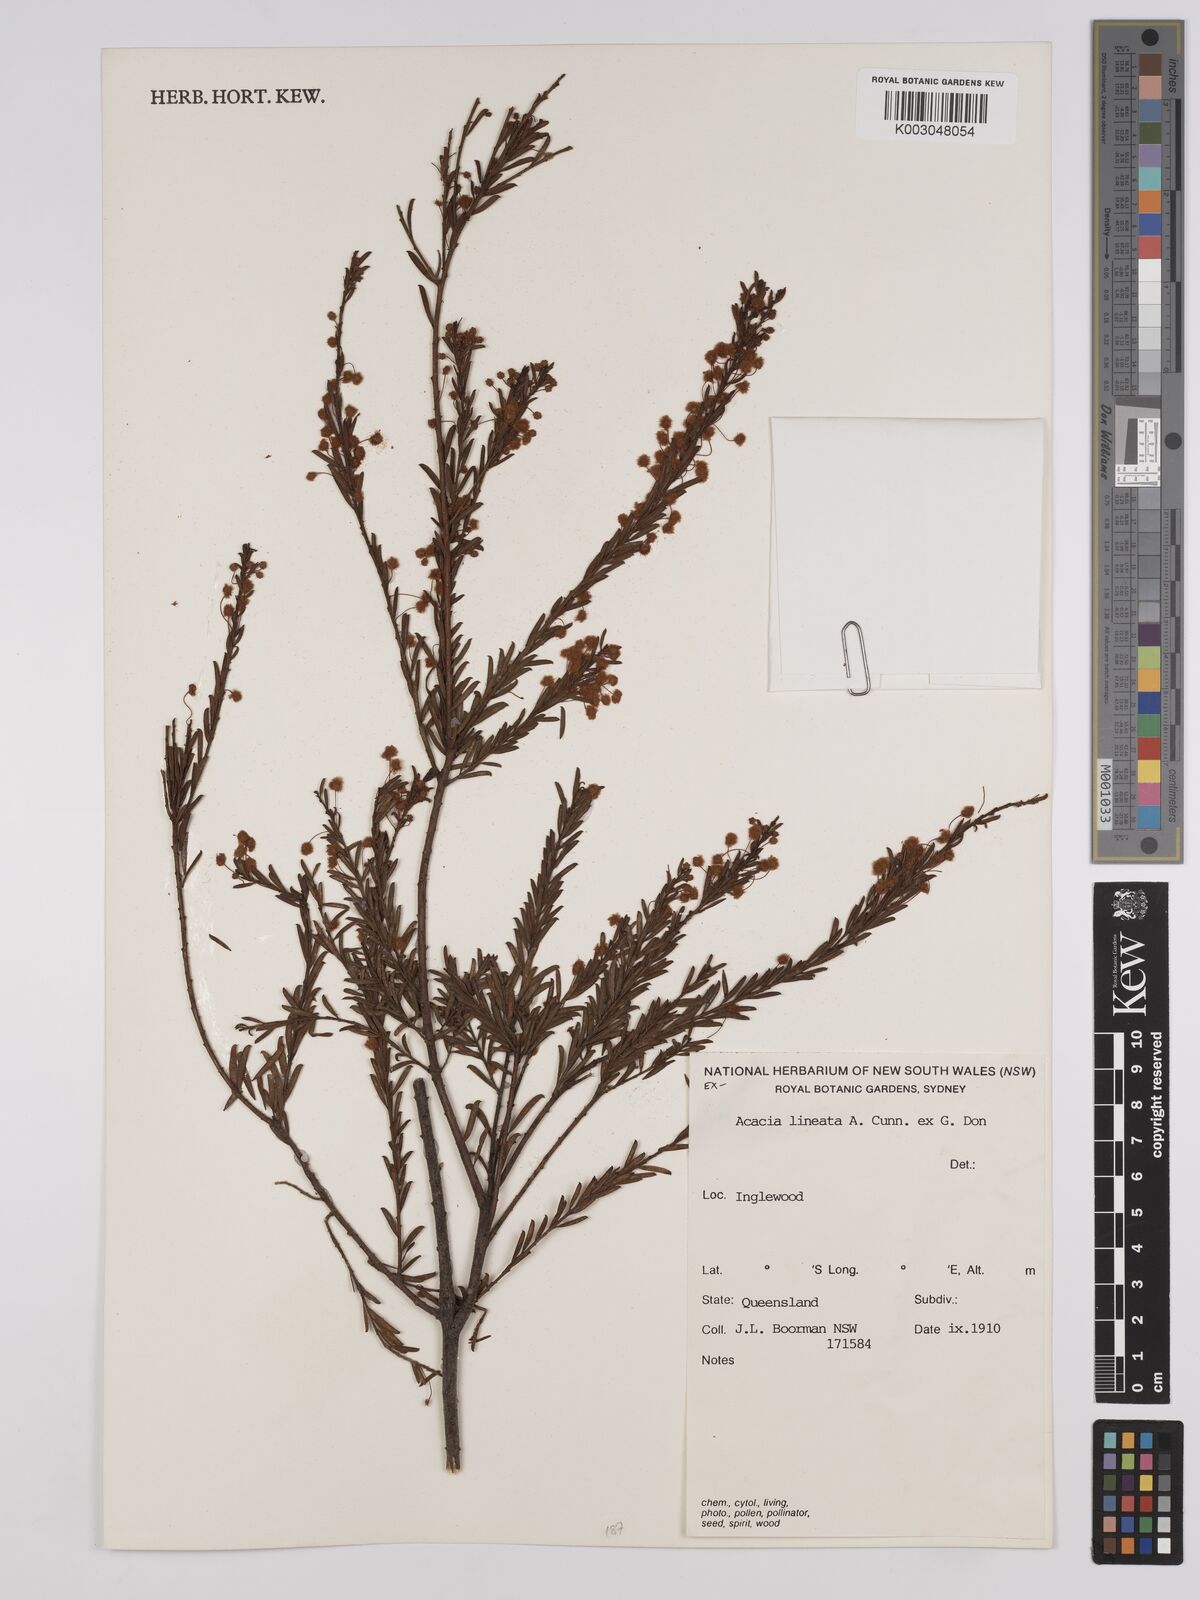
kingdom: Plantae
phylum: Tracheophyta
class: Magnoliopsida
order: Fabales
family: Fabaceae
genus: Acacia
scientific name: Acacia lineata
